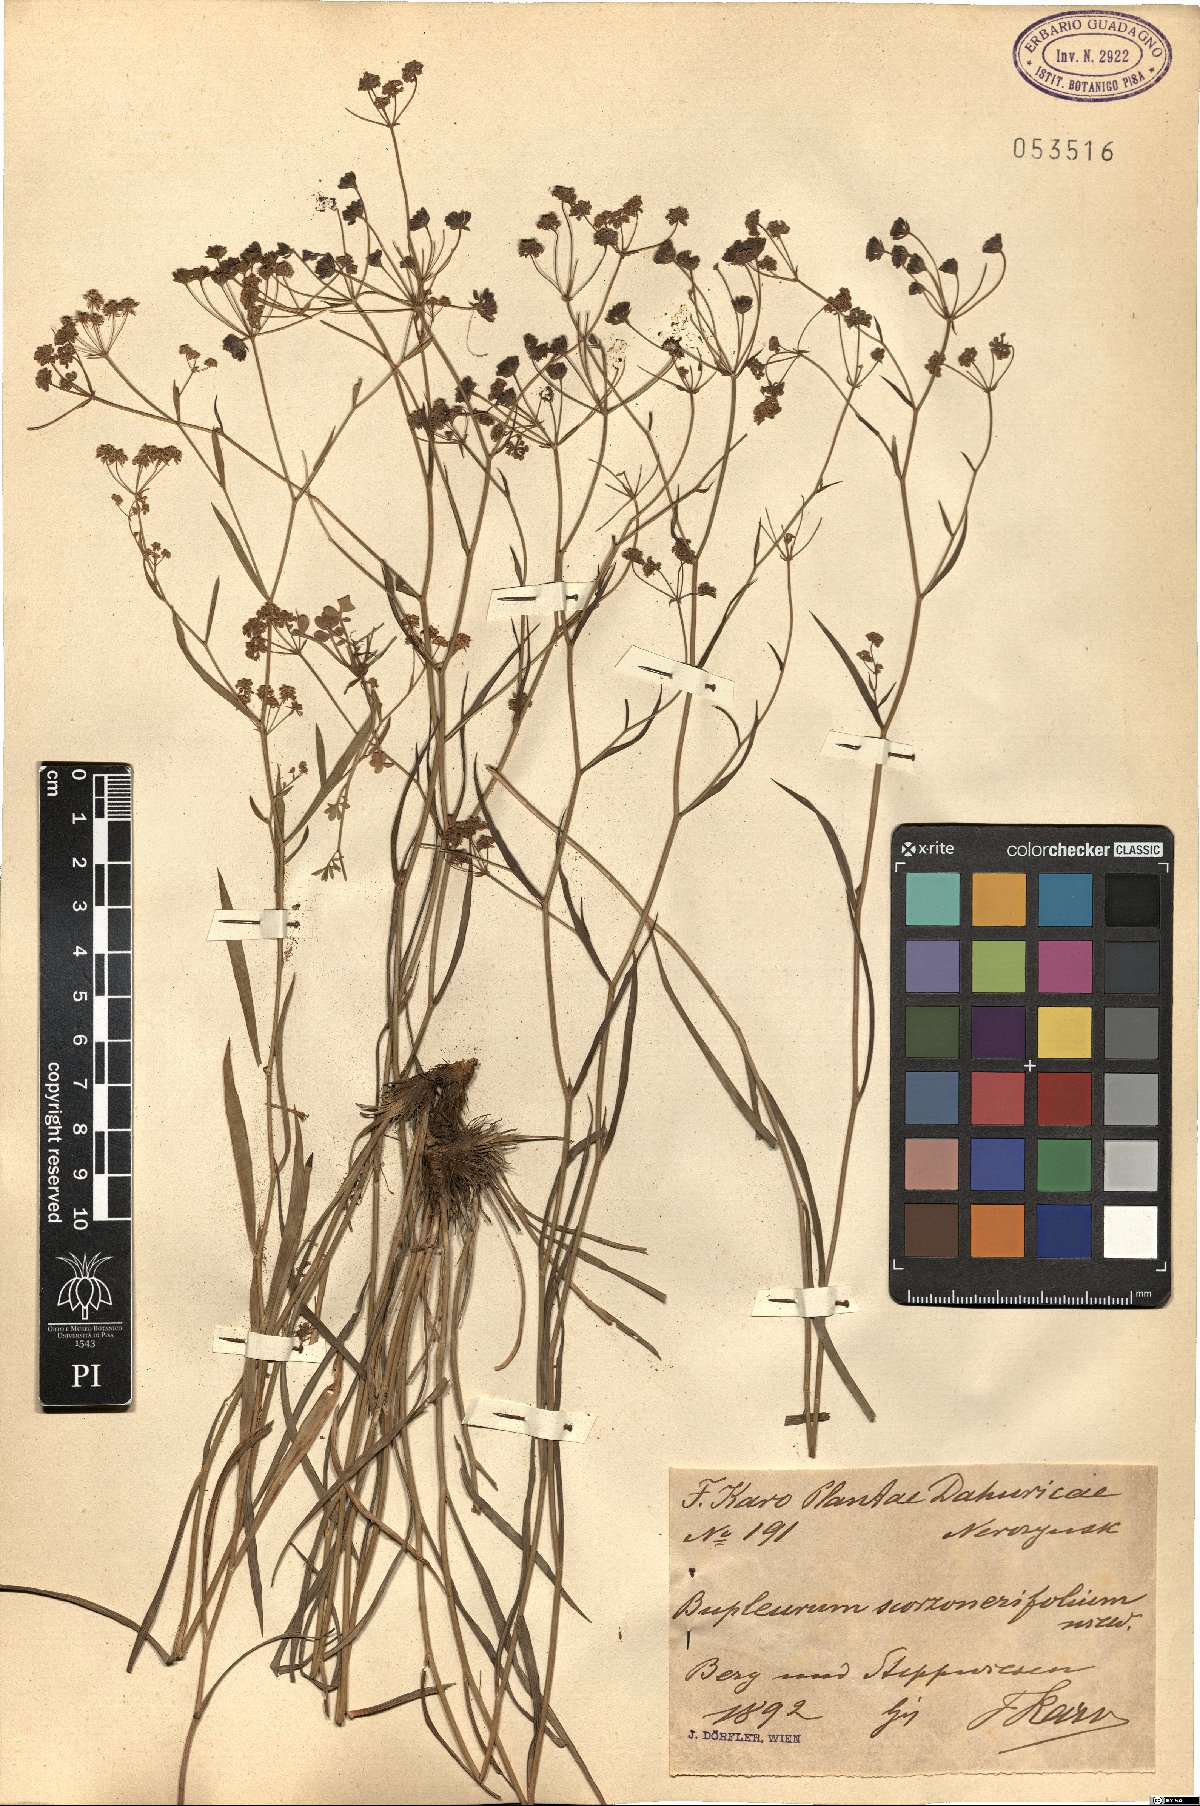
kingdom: Plantae
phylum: Tracheophyta
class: Magnoliopsida
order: Apiales
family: Apiaceae
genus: Bupleurum
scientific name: Bupleurum scorzonerifolium
